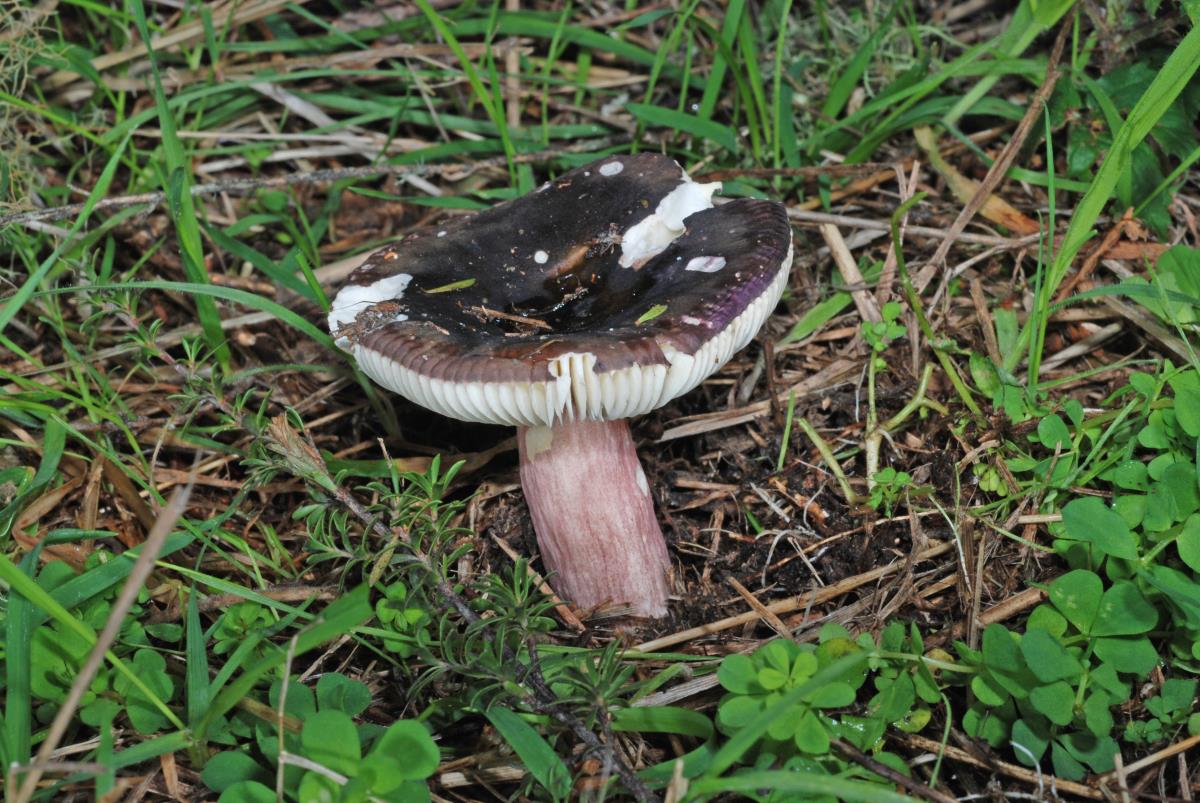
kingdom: Fungi
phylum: Basidiomycota
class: Agaricomycetes
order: Russulales
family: Russulaceae
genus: Russula
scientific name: Russula
